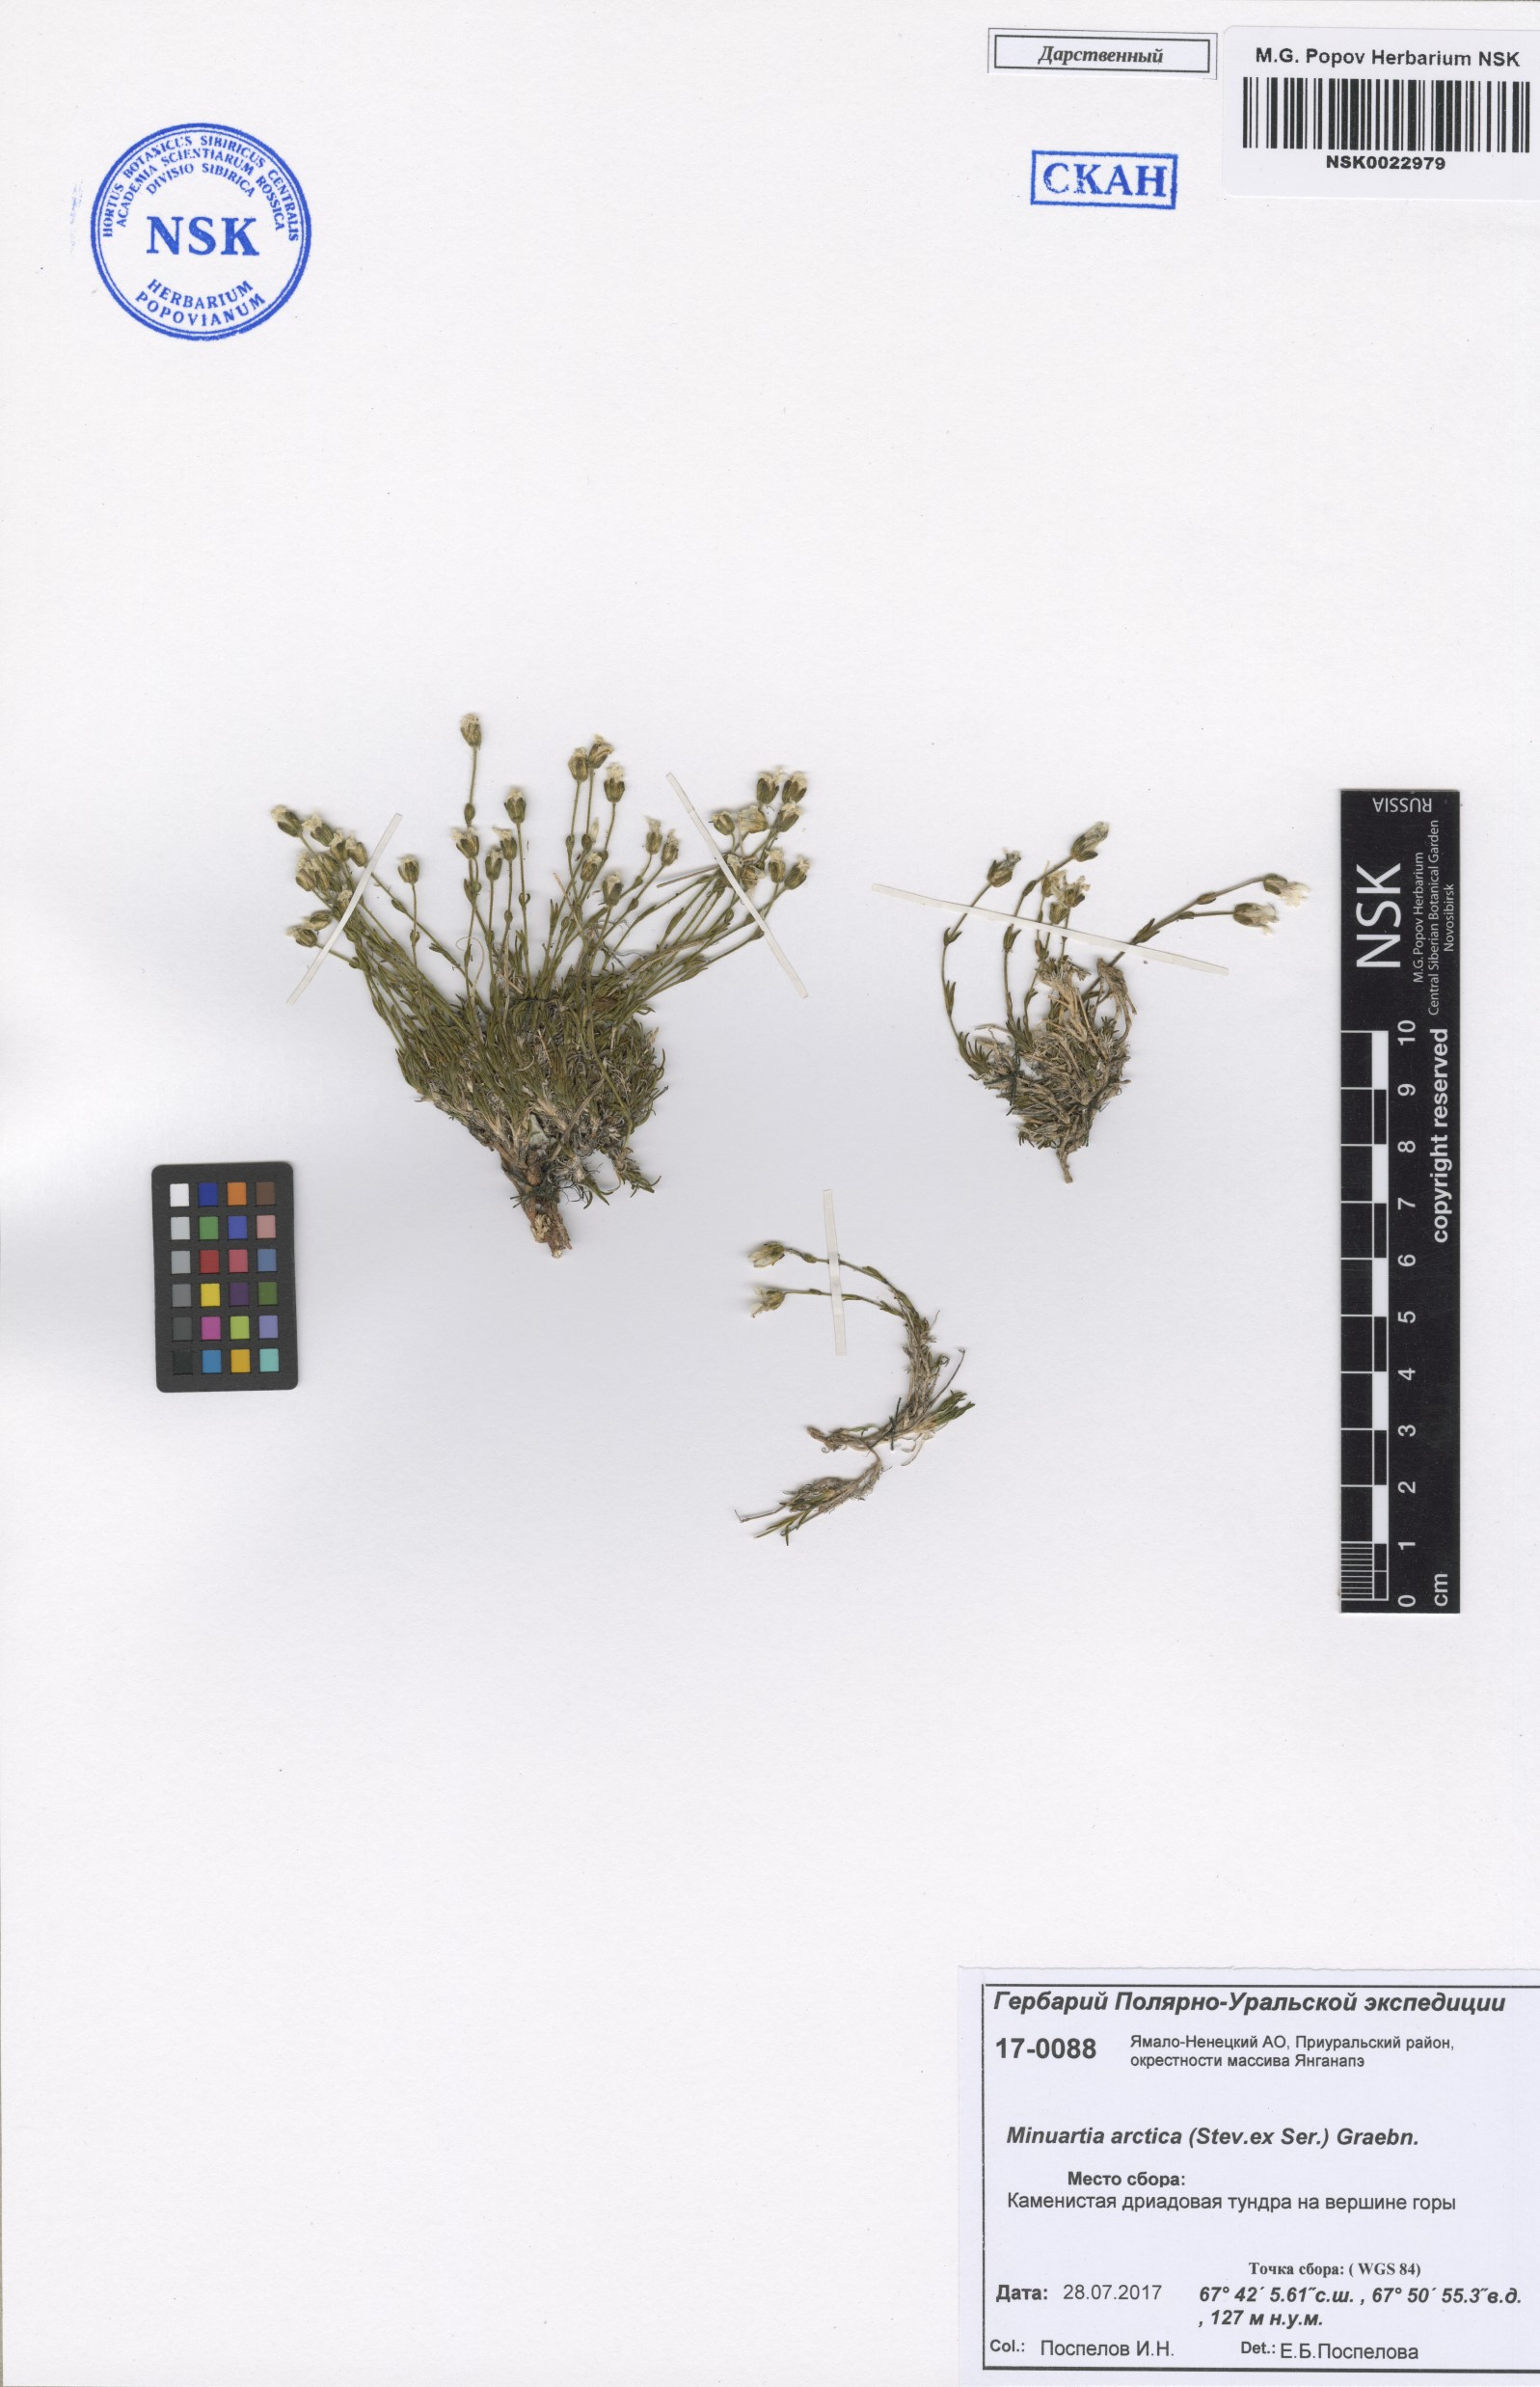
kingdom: Plantae
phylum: Tracheophyta
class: Magnoliopsida
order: Caryophyllales
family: Caryophyllaceae
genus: Cherleria
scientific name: Cherleria arctica
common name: Arctic sandwort
